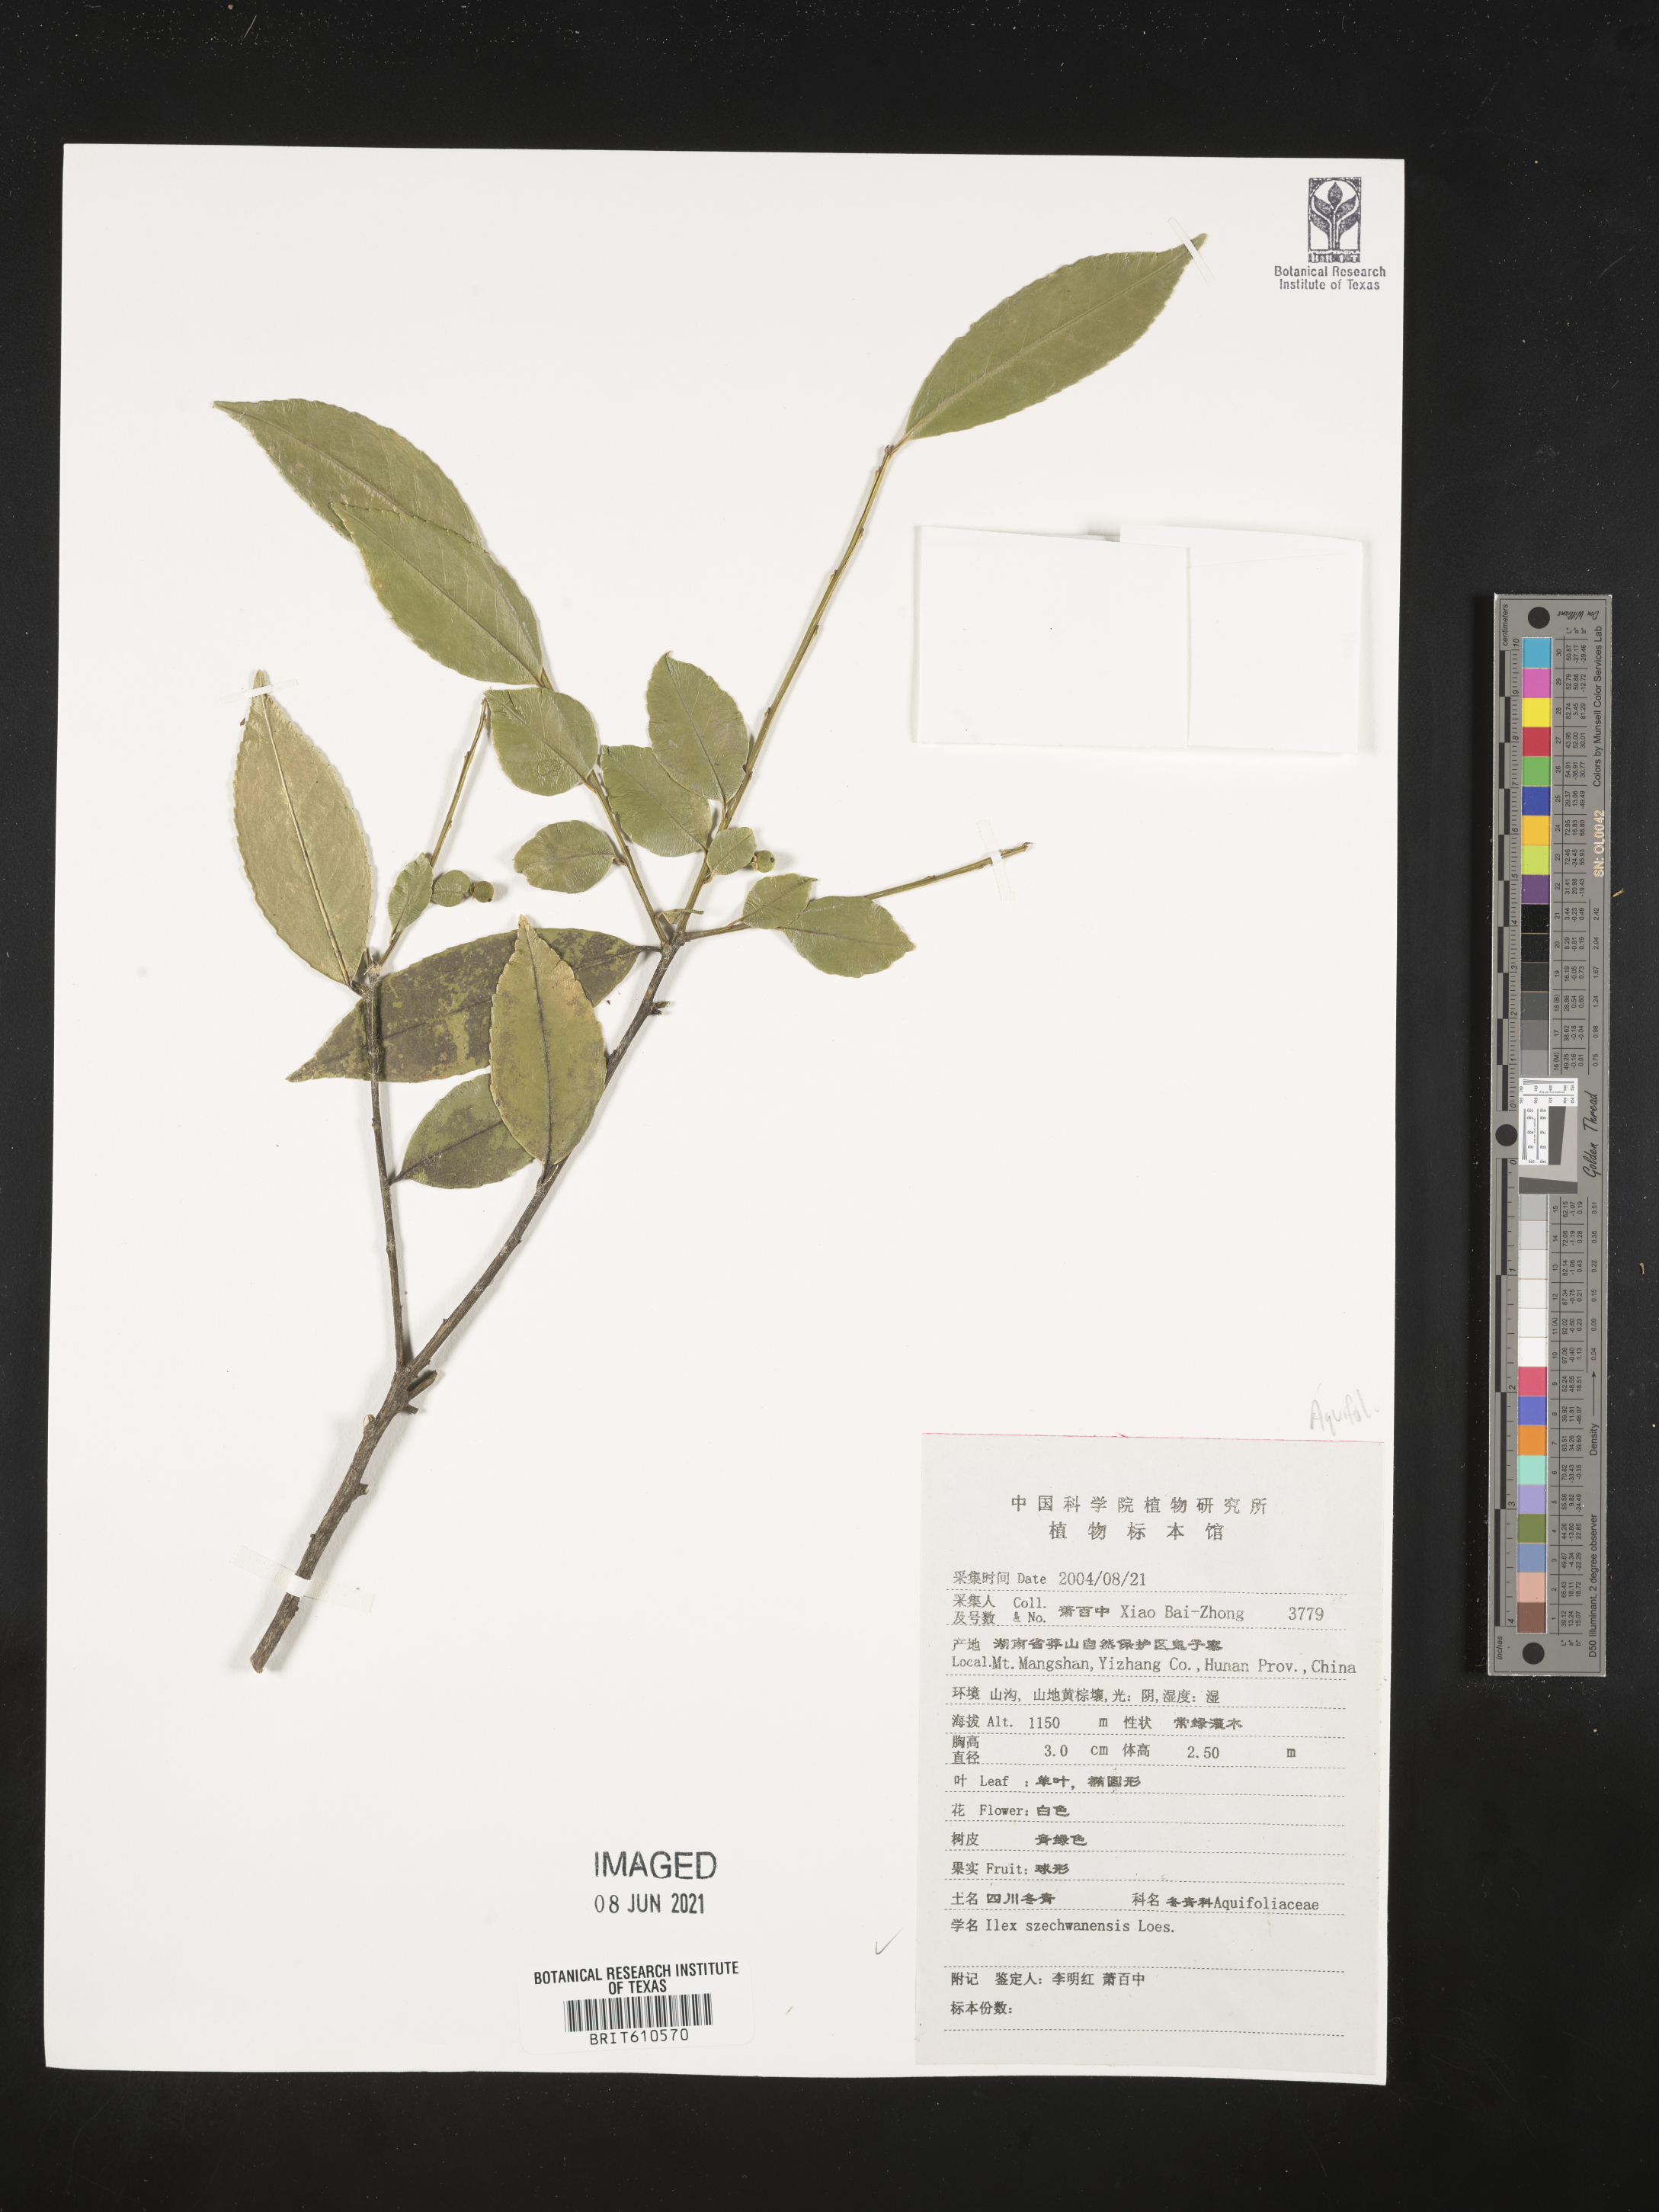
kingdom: Plantae
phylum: Tracheophyta
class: Magnoliopsida
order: Aquifoliales
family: Aquifoliaceae
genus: Ilex
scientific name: Ilex szechwanensis
